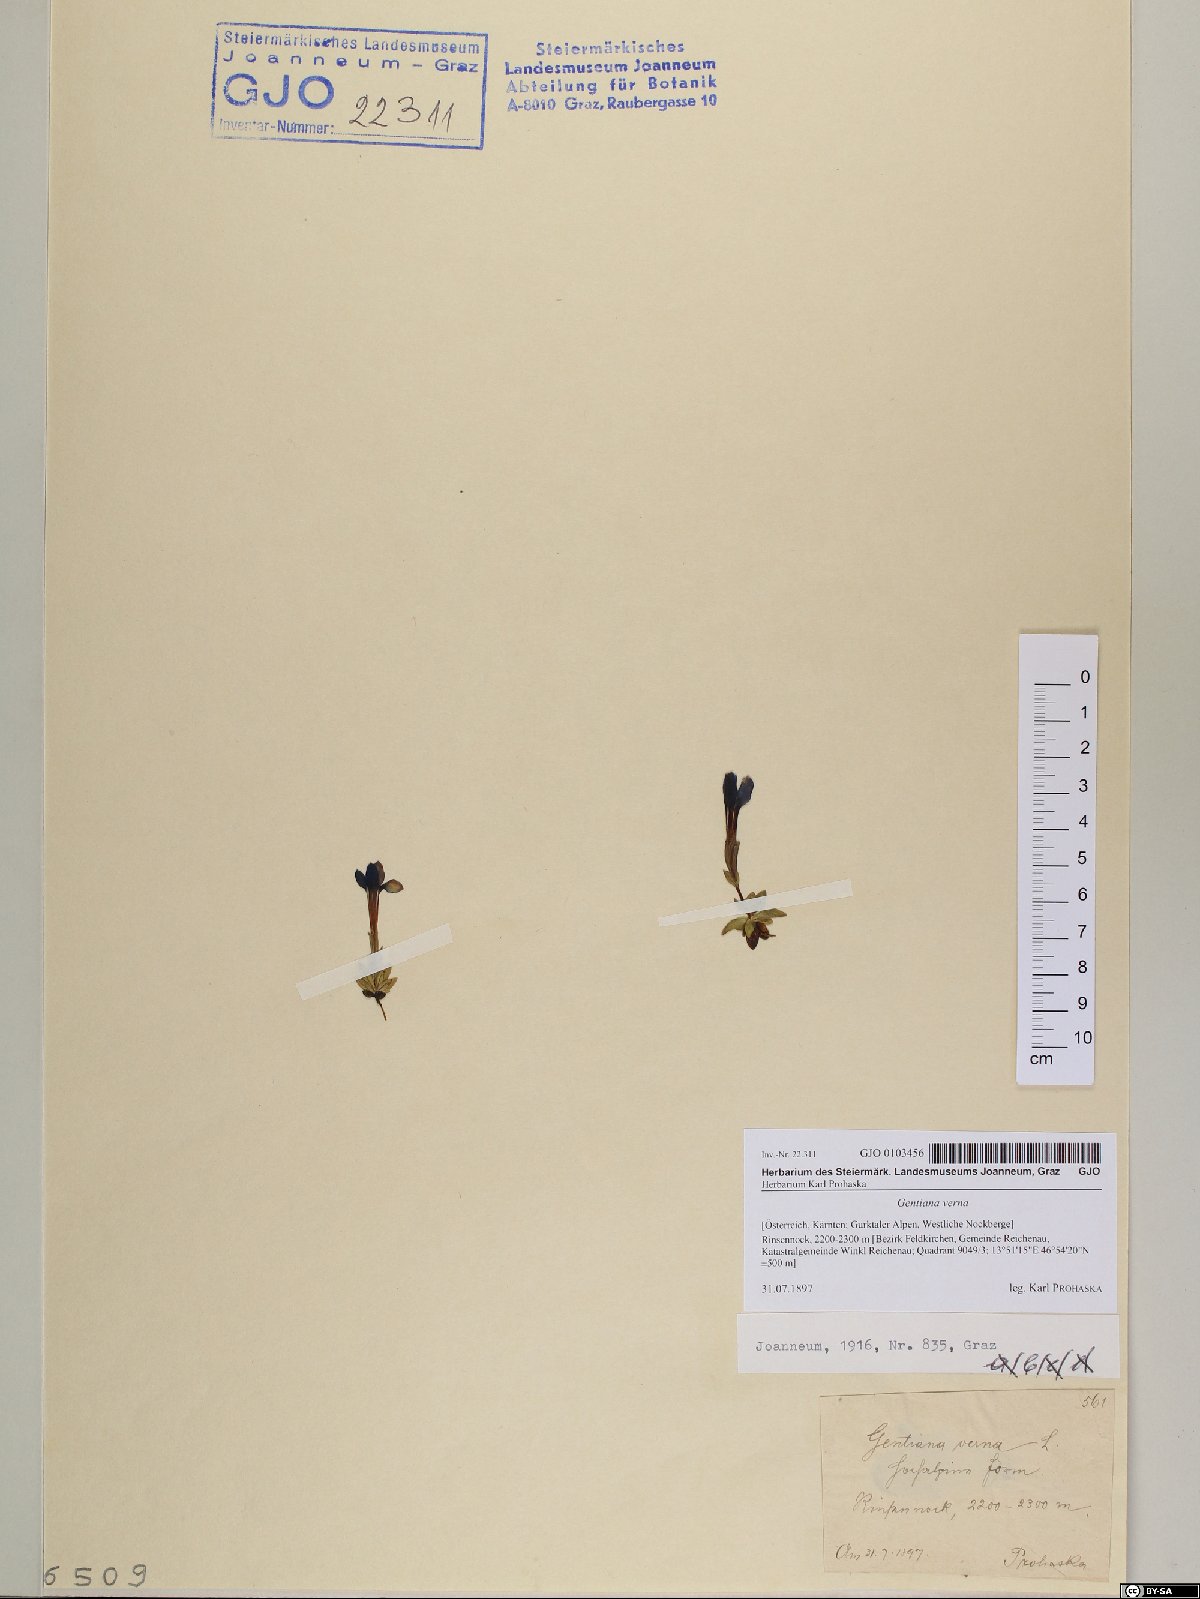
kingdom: Plantae
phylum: Tracheophyta
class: Magnoliopsida
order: Gentianales
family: Gentianaceae
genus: Gentiana
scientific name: Gentiana verna
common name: Spring gentian
